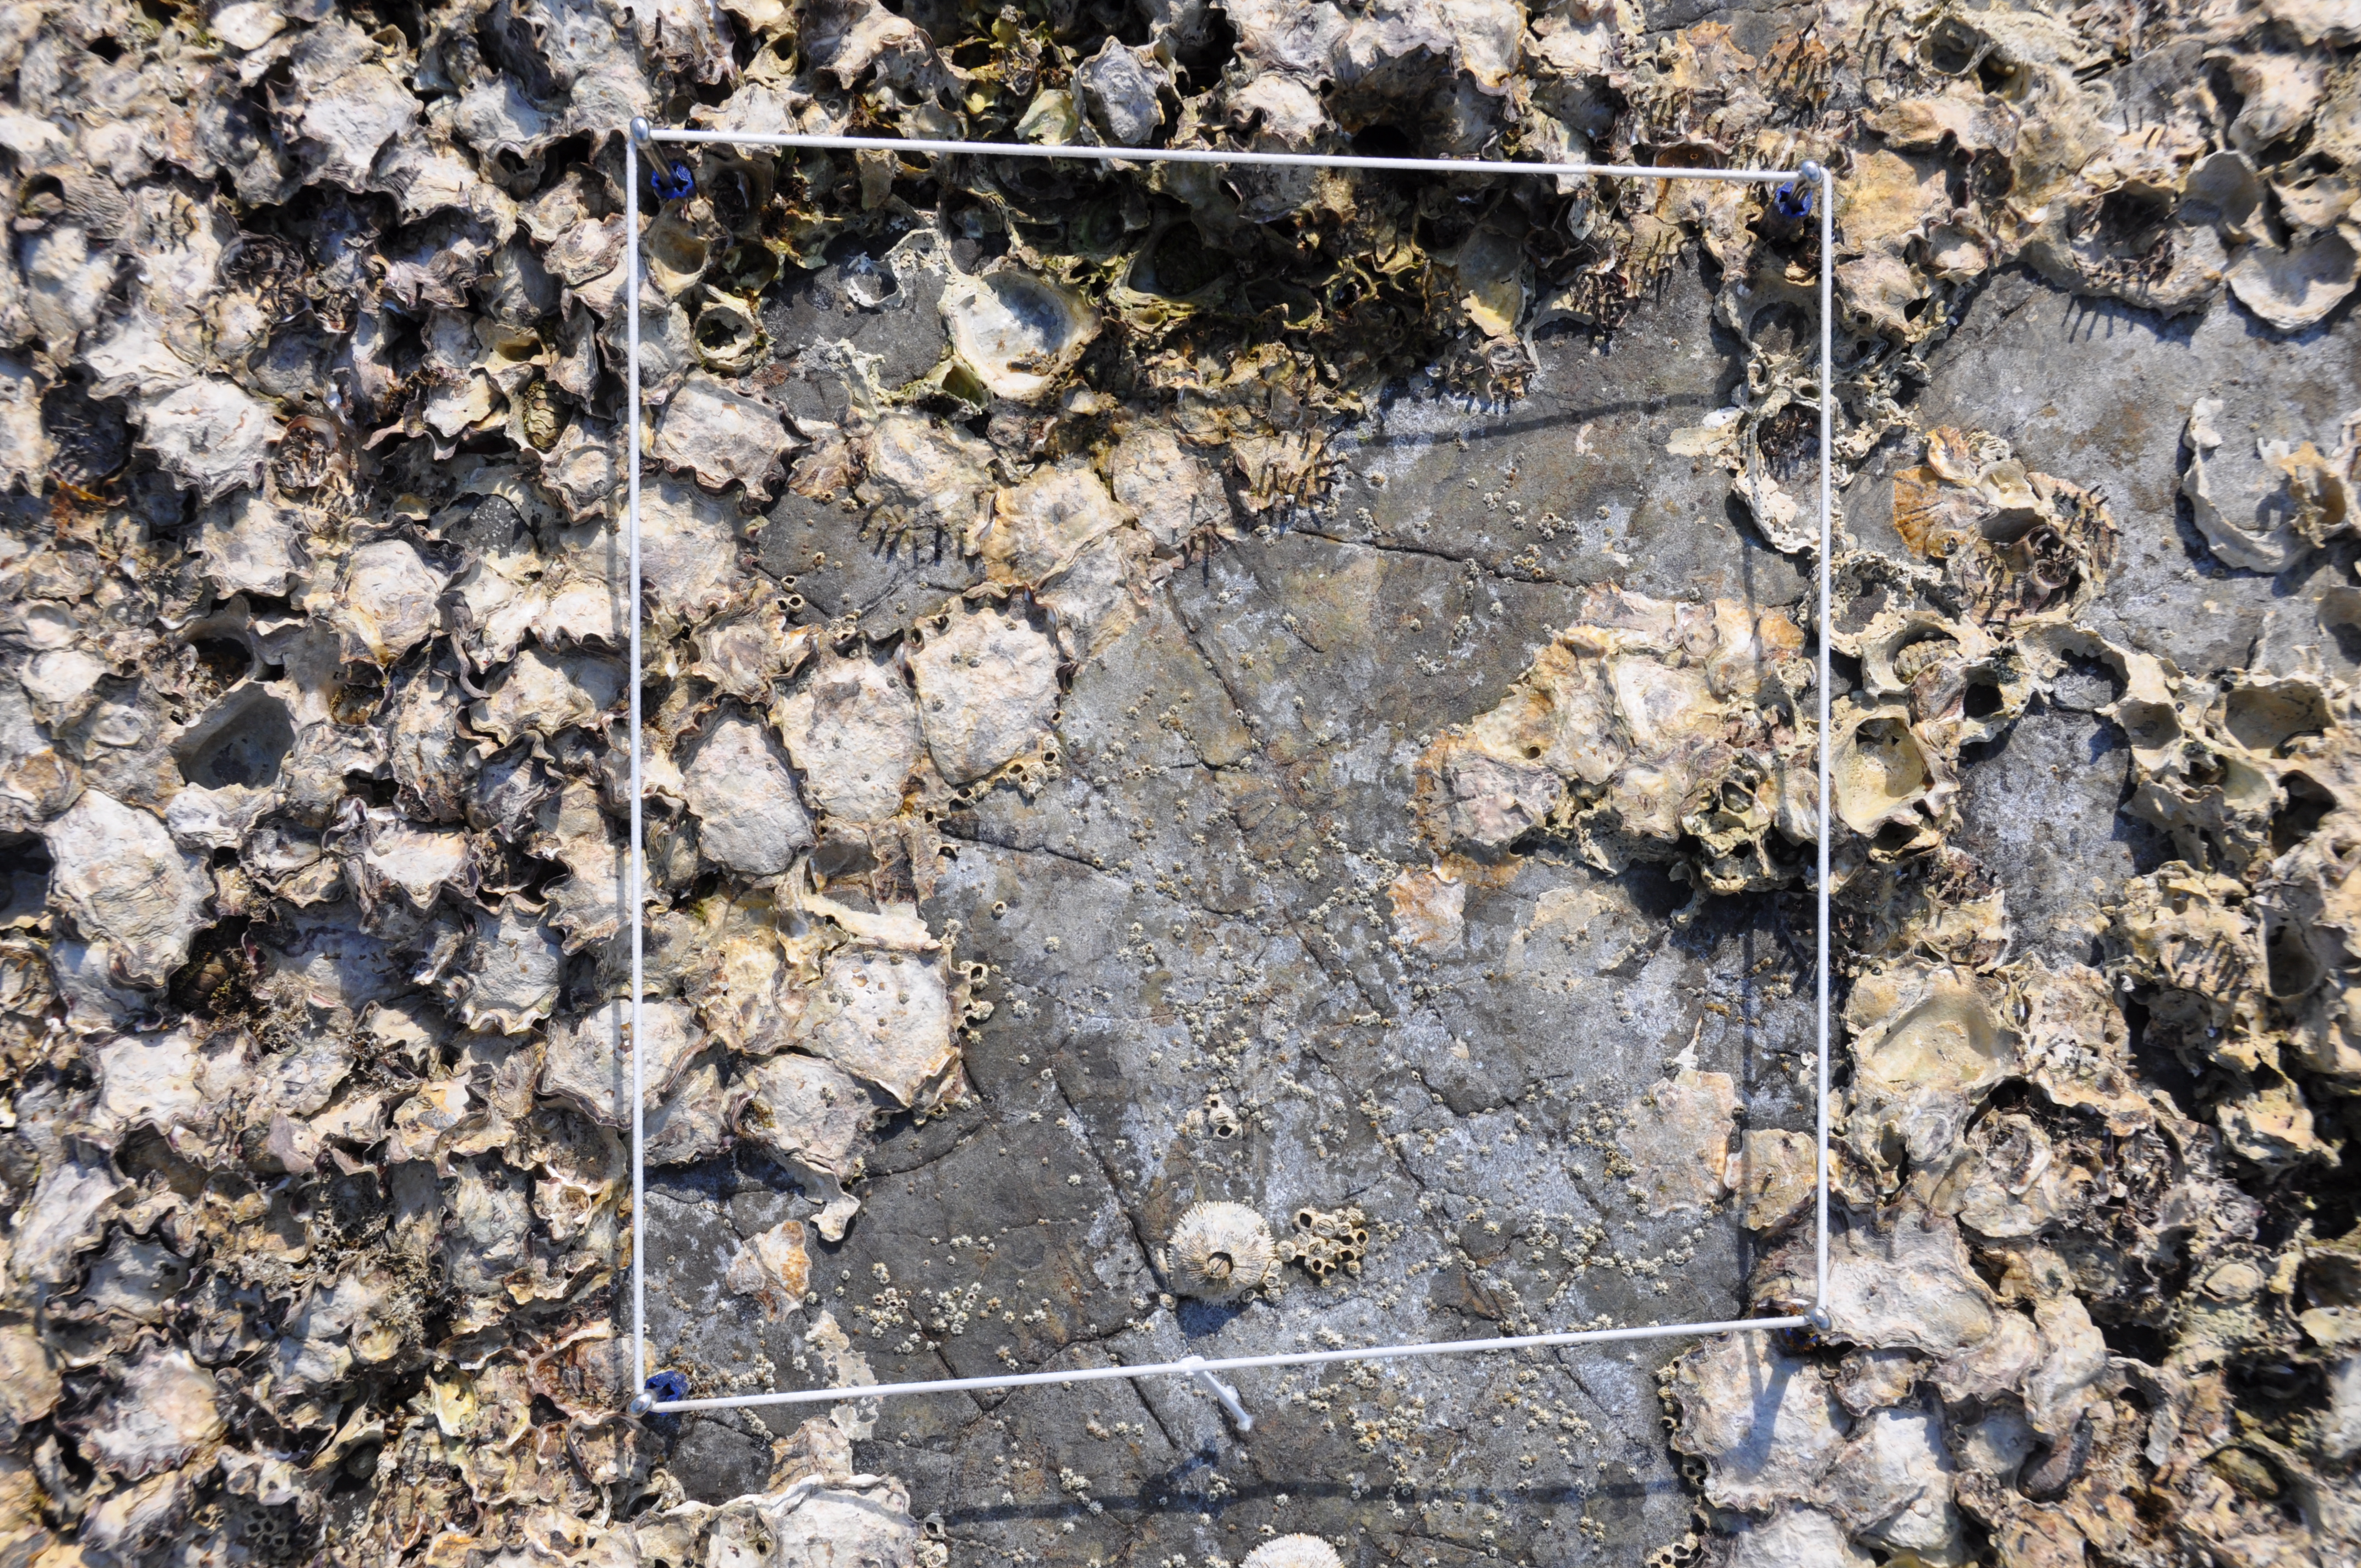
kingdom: Animalia
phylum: Arthropoda
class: Maxillopoda
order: Sessilia
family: Chthamalidae
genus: Chthamalus
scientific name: Chthamalus challengeri
